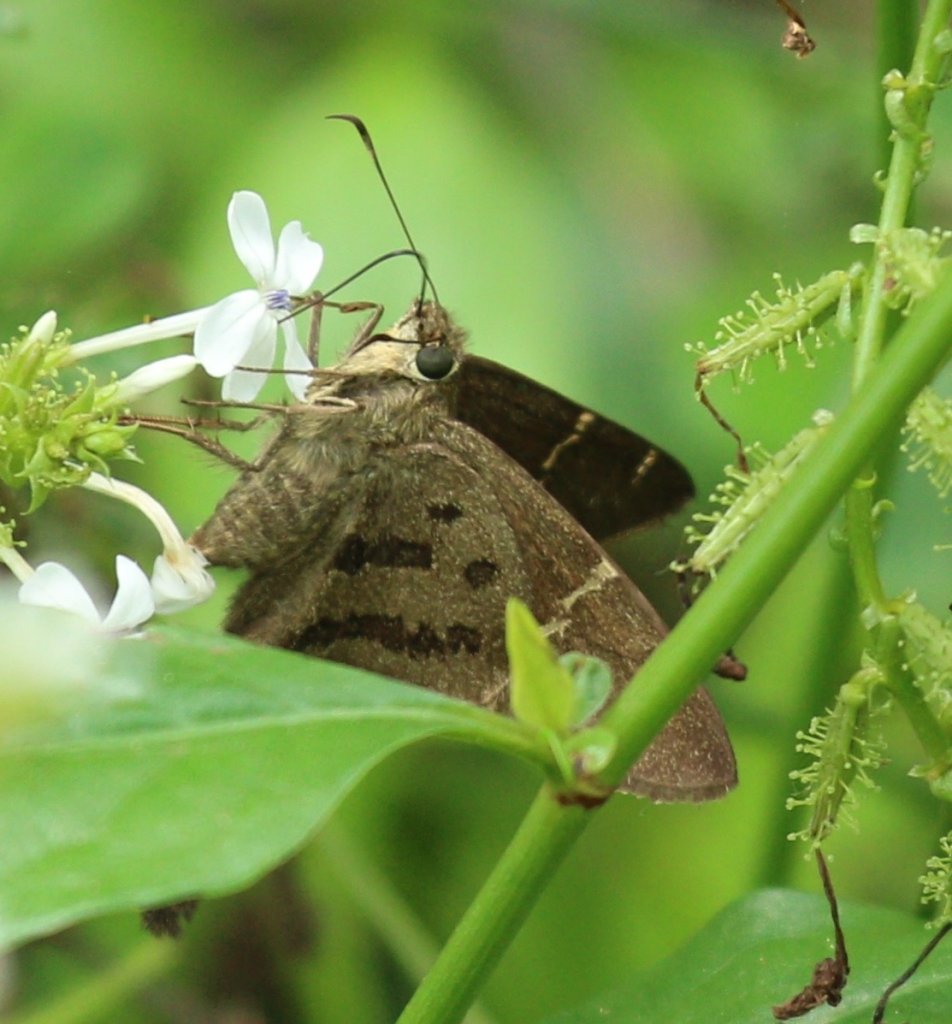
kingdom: Animalia
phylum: Arthropoda
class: Insecta
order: Lepidoptera
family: Hesperiidae
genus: Urbanus
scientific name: Urbanus procne
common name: Brown Longtail
